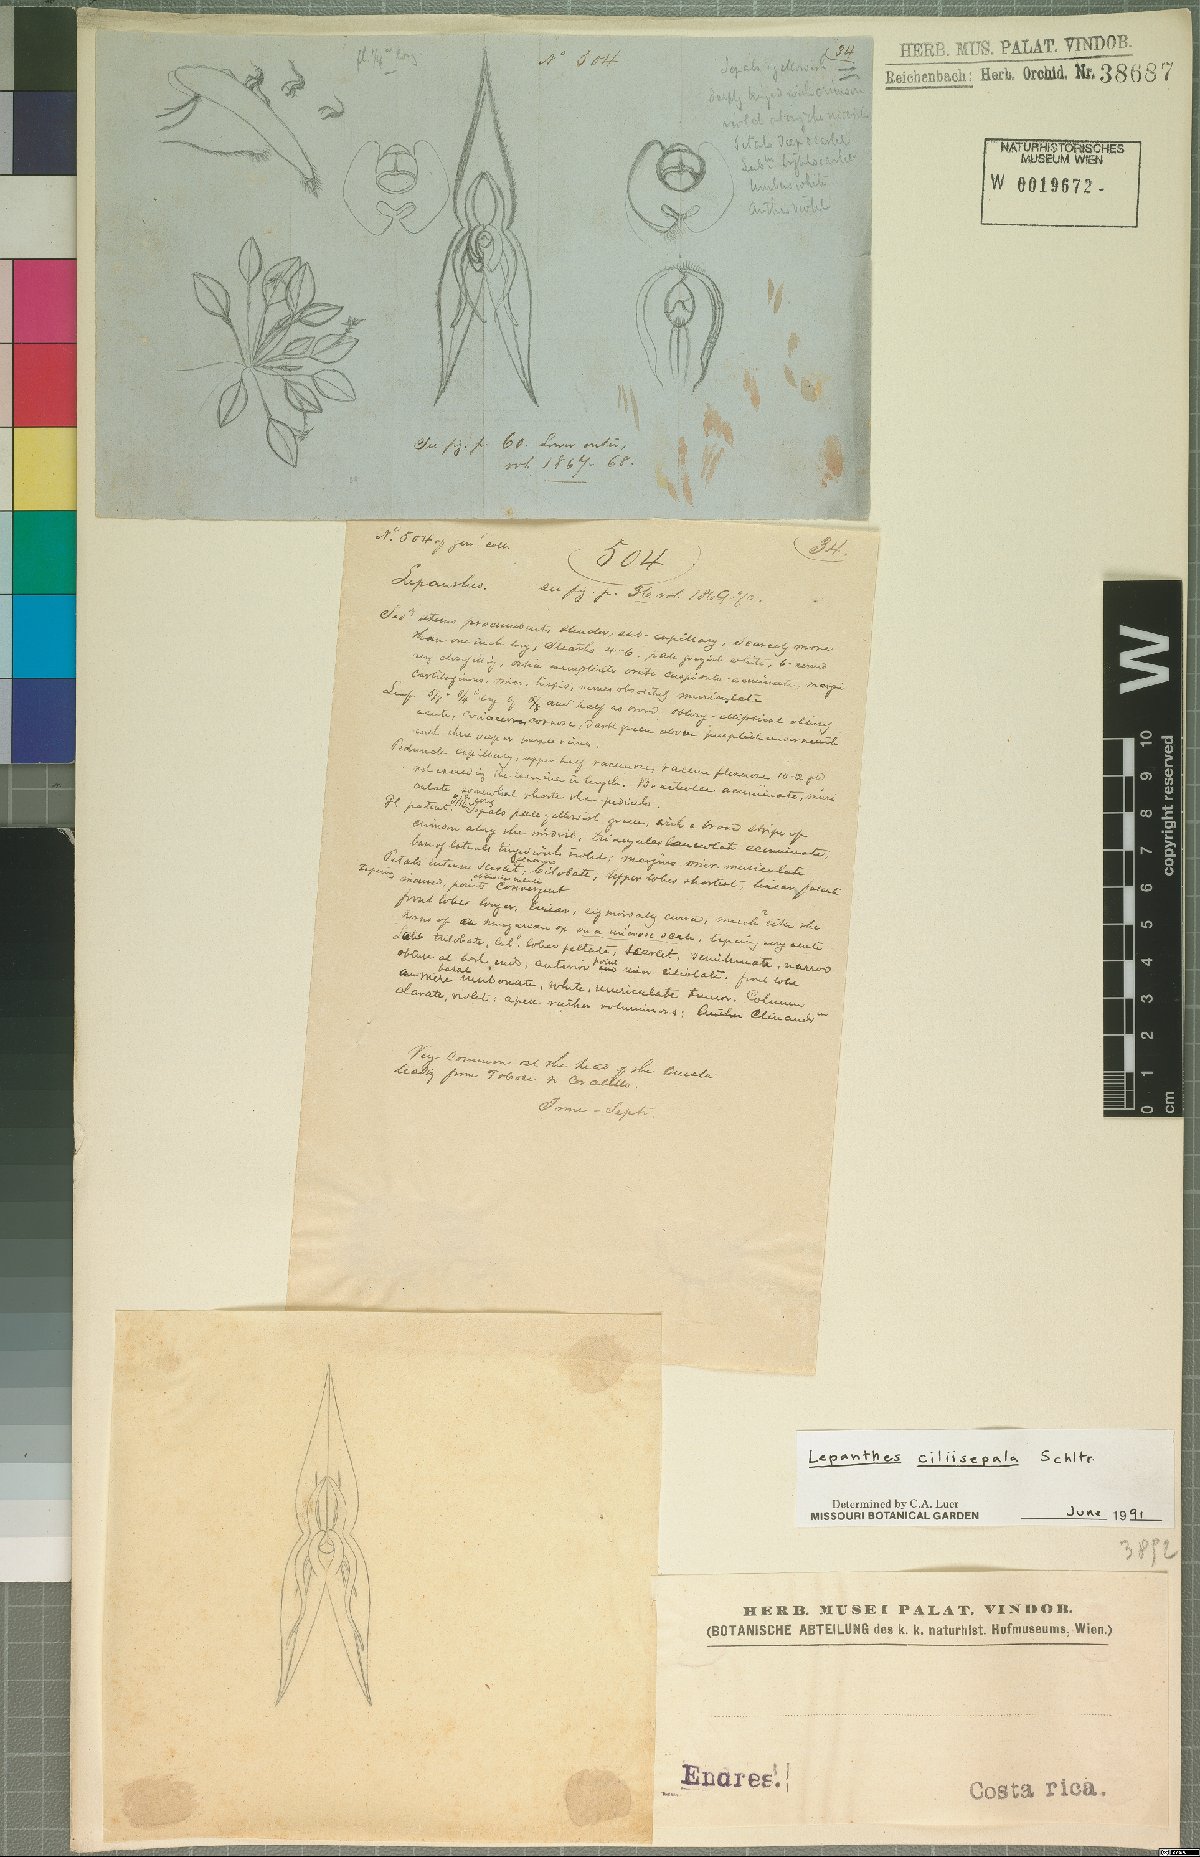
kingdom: Plantae
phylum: Tracheophyta
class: Liliopsida
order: Asparagales
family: Orchidaceae
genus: Lepanthes
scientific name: Lepanthes ciliisepala
